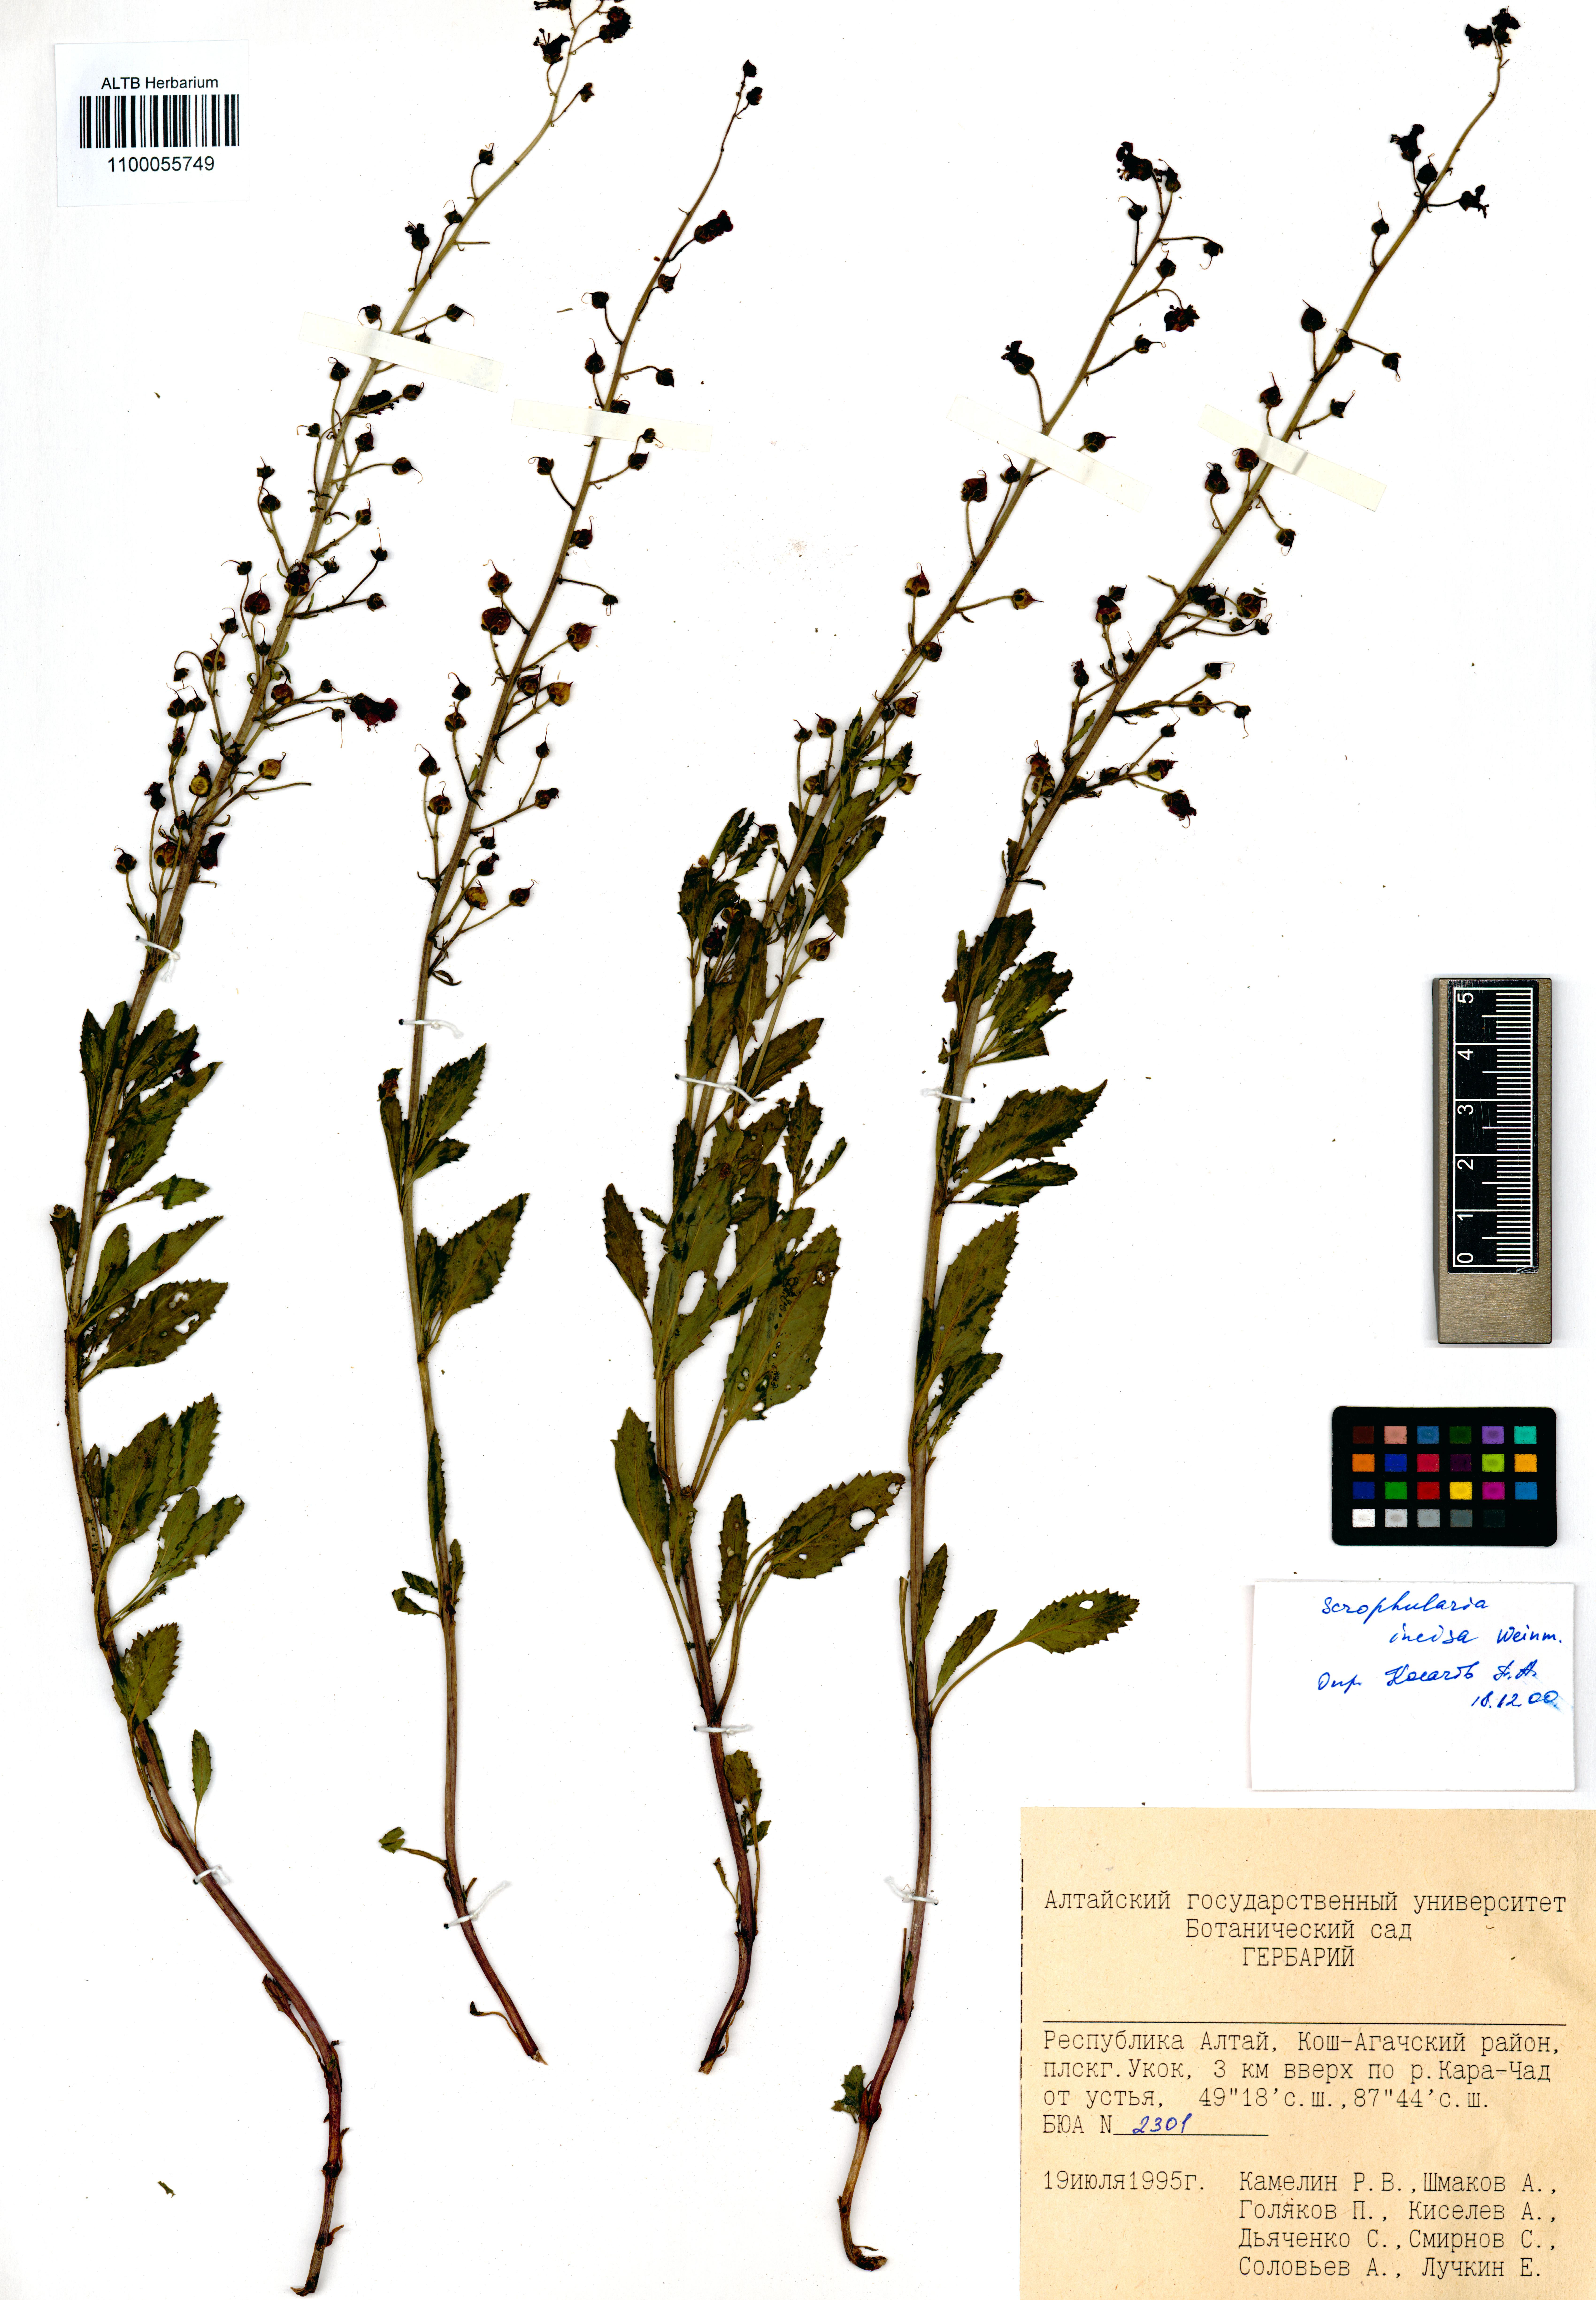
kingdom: Plantae
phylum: Tracheophyta
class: Magnoliopsida
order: Lamiales
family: Scrophulariaceae
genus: Scrophularia
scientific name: Scrophularia incisa
